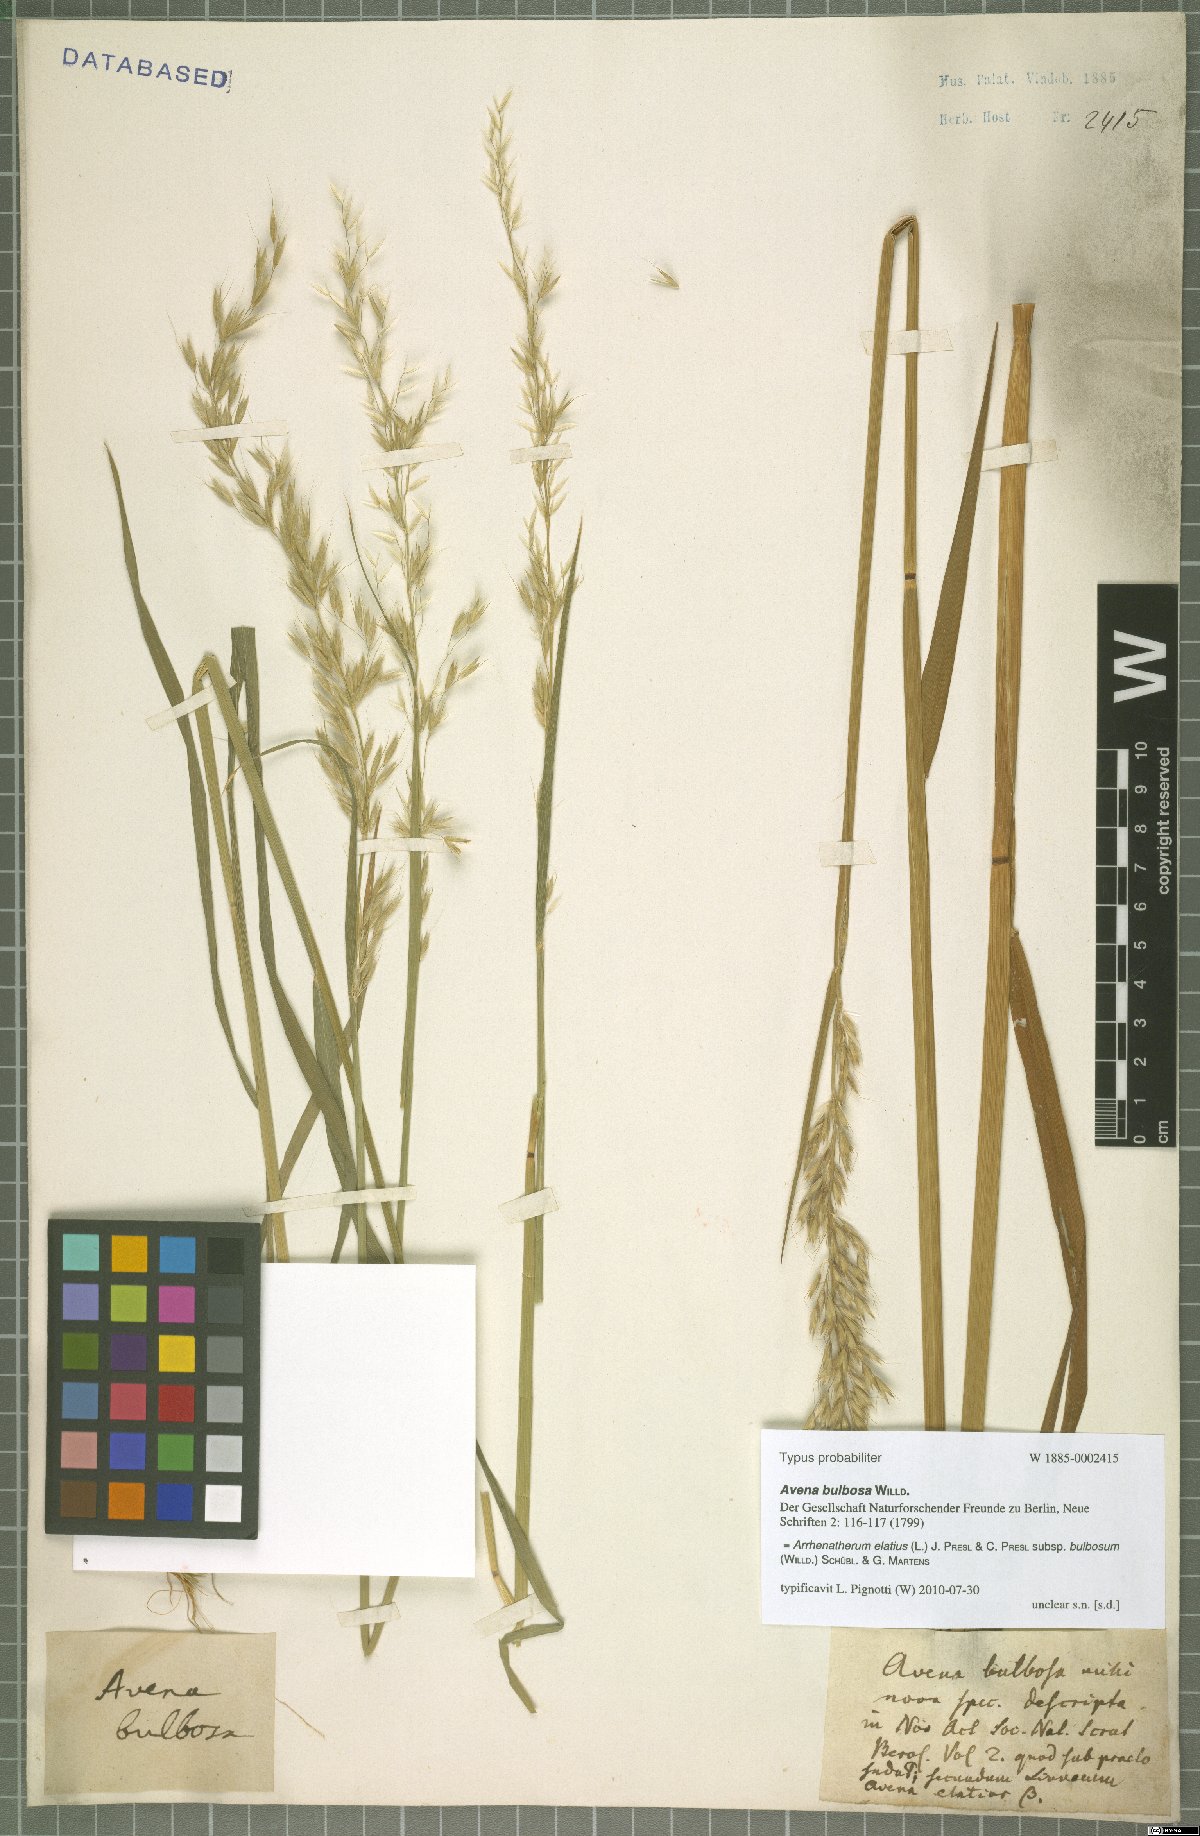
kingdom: Plantae
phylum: Tracheophyta
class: Liliopsida
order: Poales
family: Poaceae
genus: Arrhenatherum
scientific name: Arrhenatherum elatius
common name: Tall oatgrass
